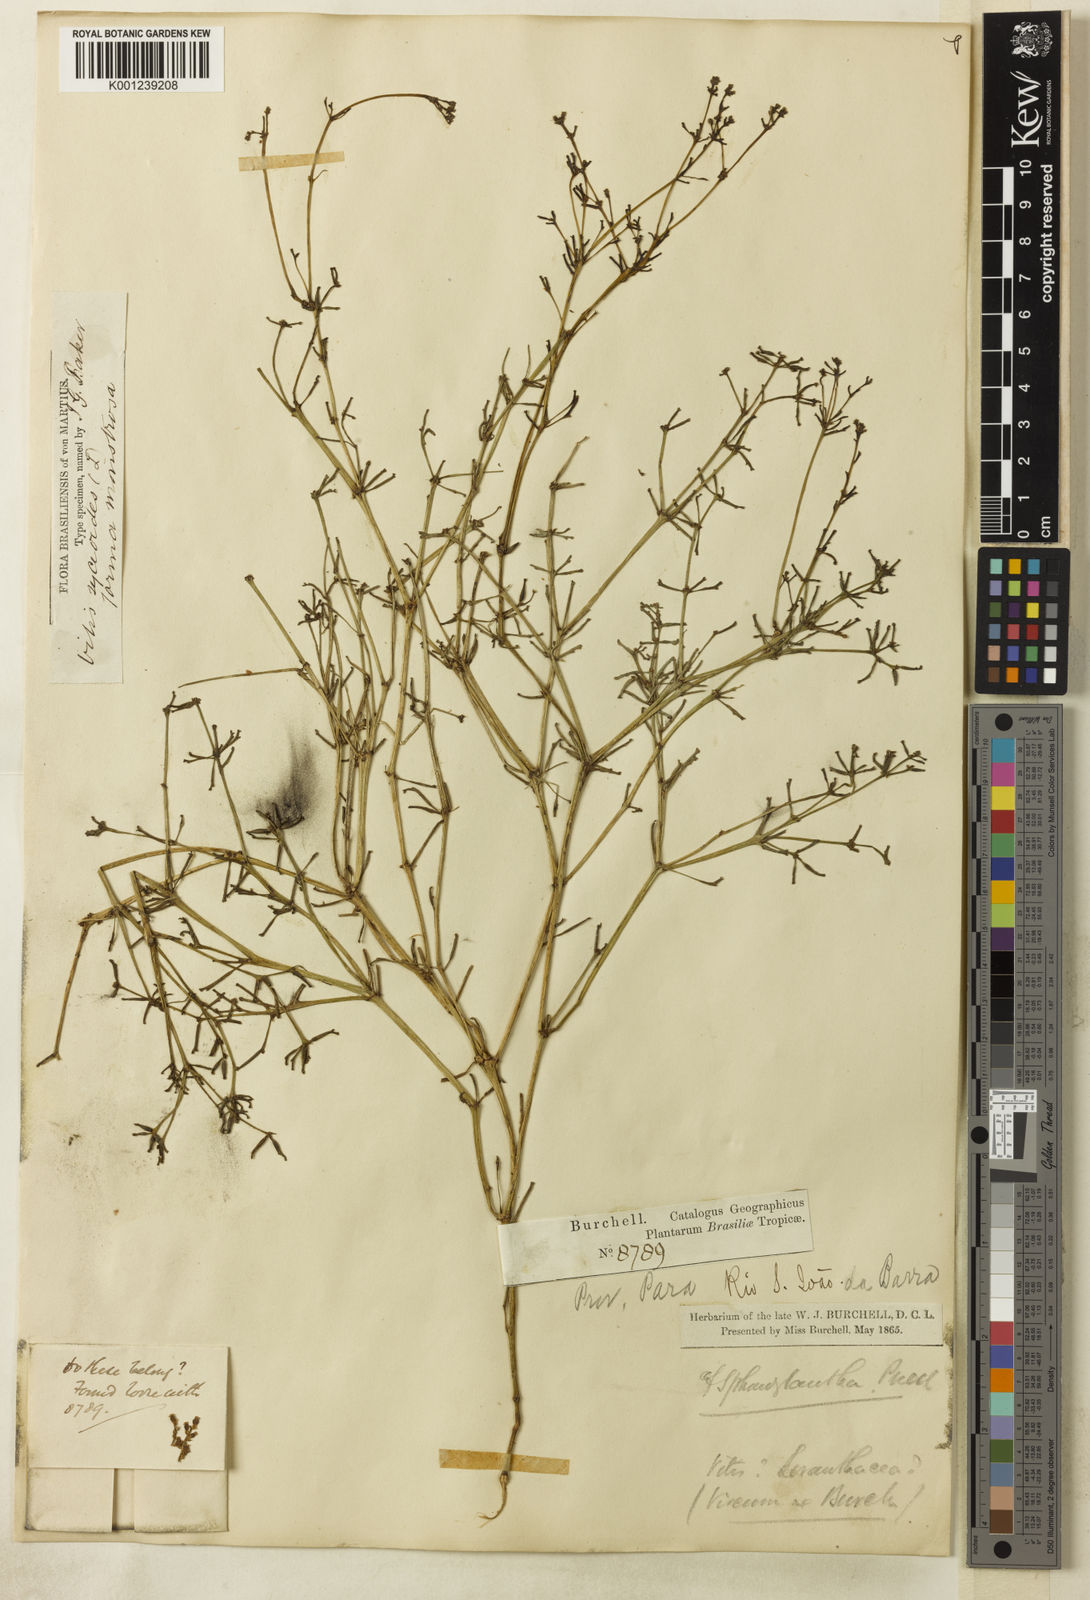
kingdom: Plantae
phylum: Tracheophyta
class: Magnoliopsida
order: Vitales
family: Vitaceae
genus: Cissus
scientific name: Cissus verticillata
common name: Princess vine
